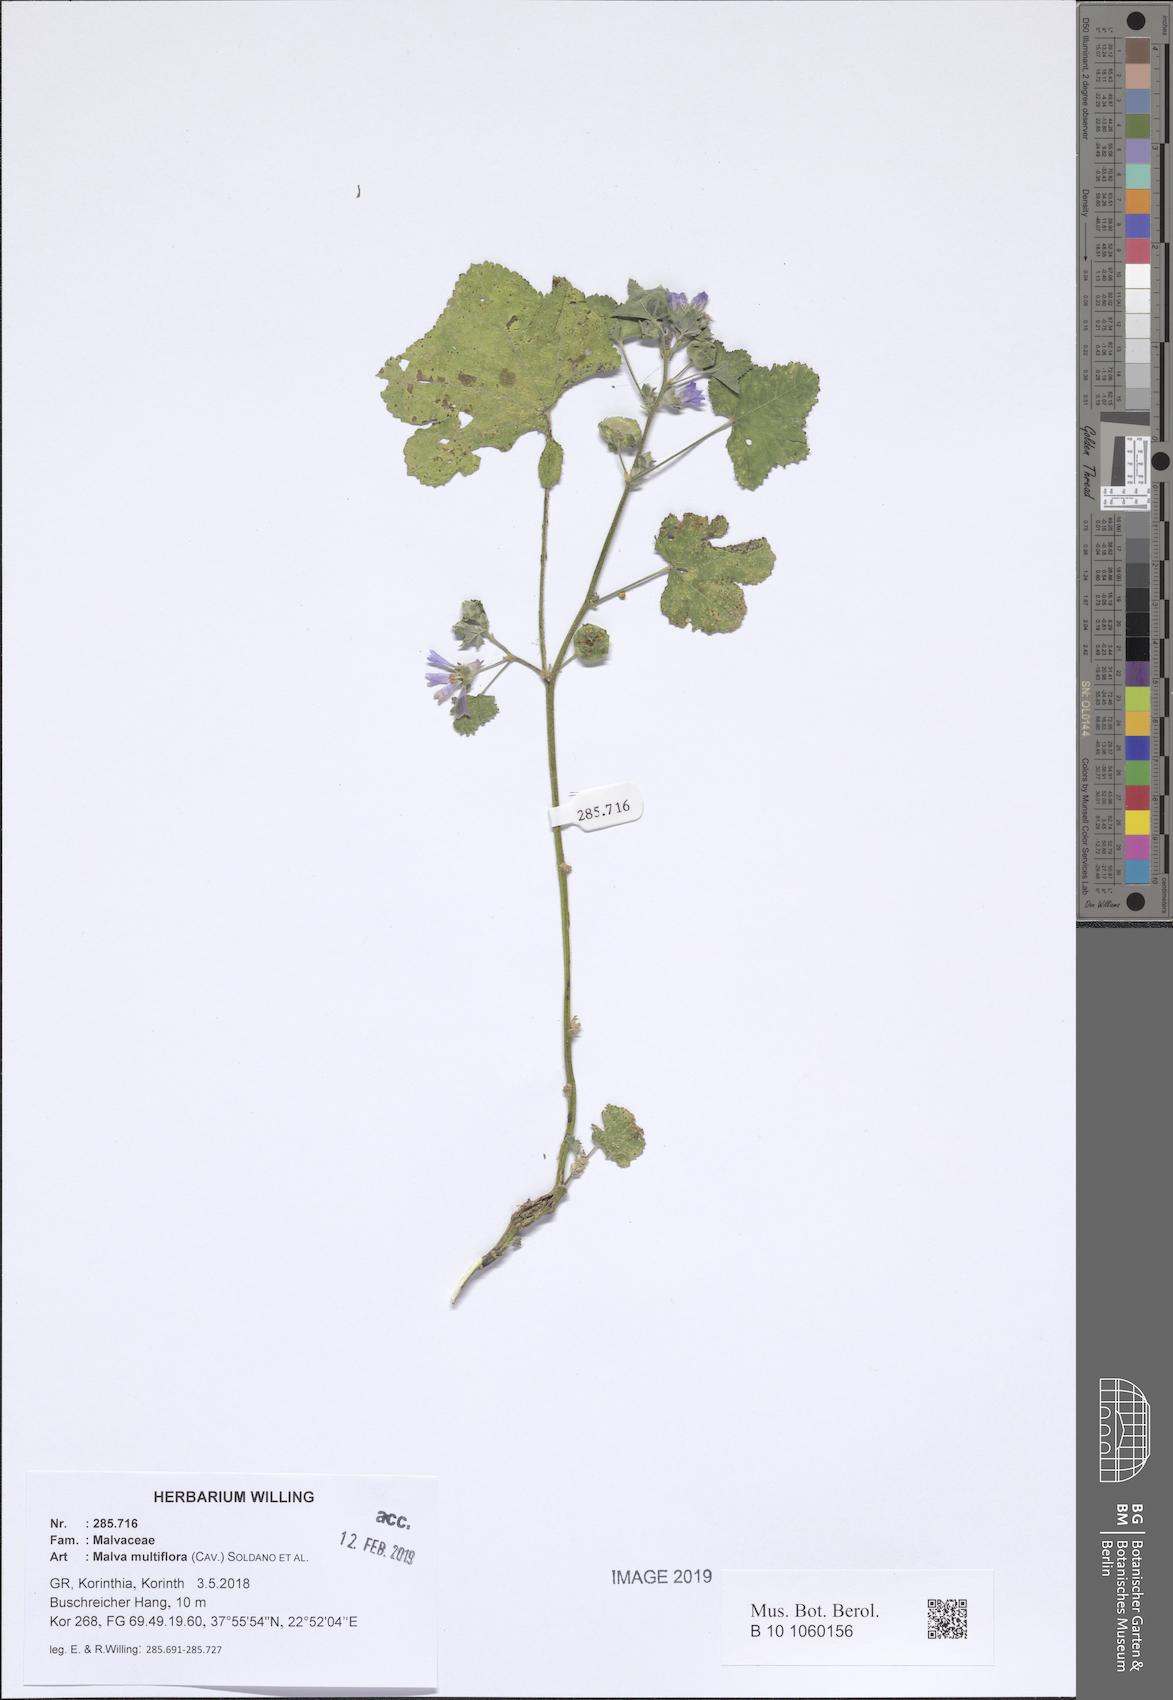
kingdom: Plantae
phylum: Tracheophyta
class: Magnoliopsida
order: Malvales
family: Malvaceae
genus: Malva
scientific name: Malva multiflora
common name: Cheeseweed
